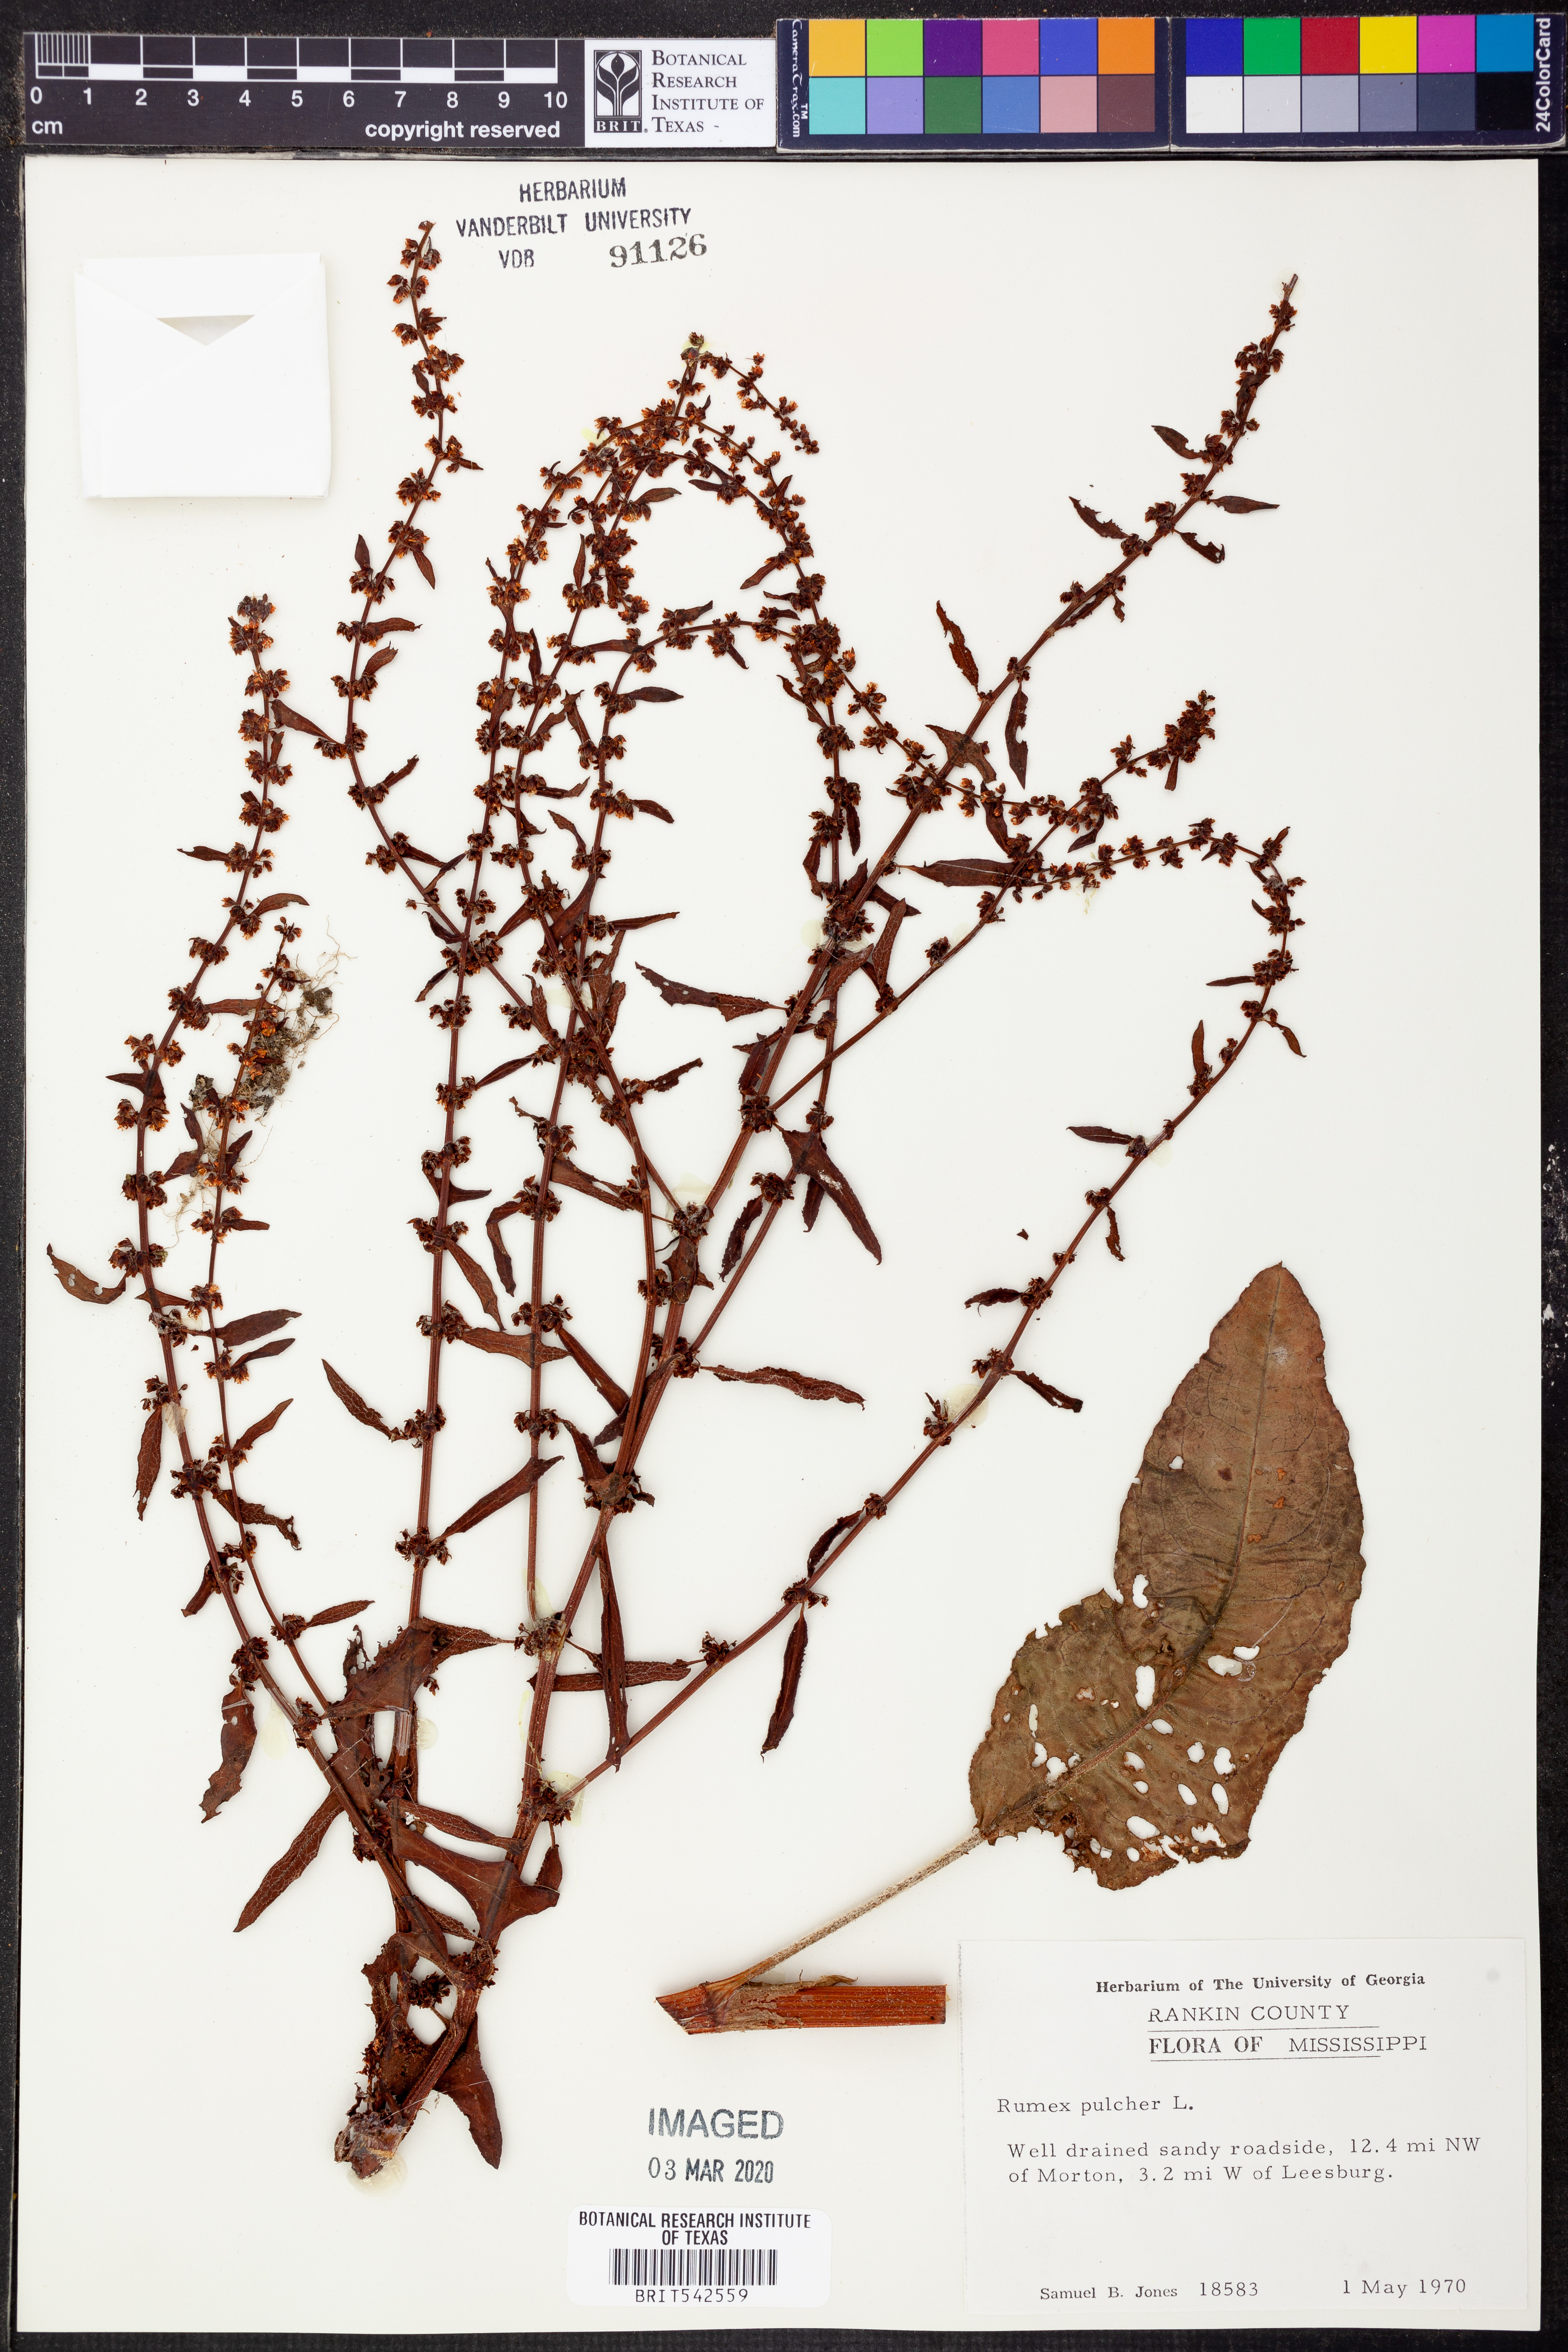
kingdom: Plantae
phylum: Tracheophyta
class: Magnoliopsida
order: Caryophyllales
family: Polygonaceae
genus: Rumex
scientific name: Rumex pulcher
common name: Fiddle dock
